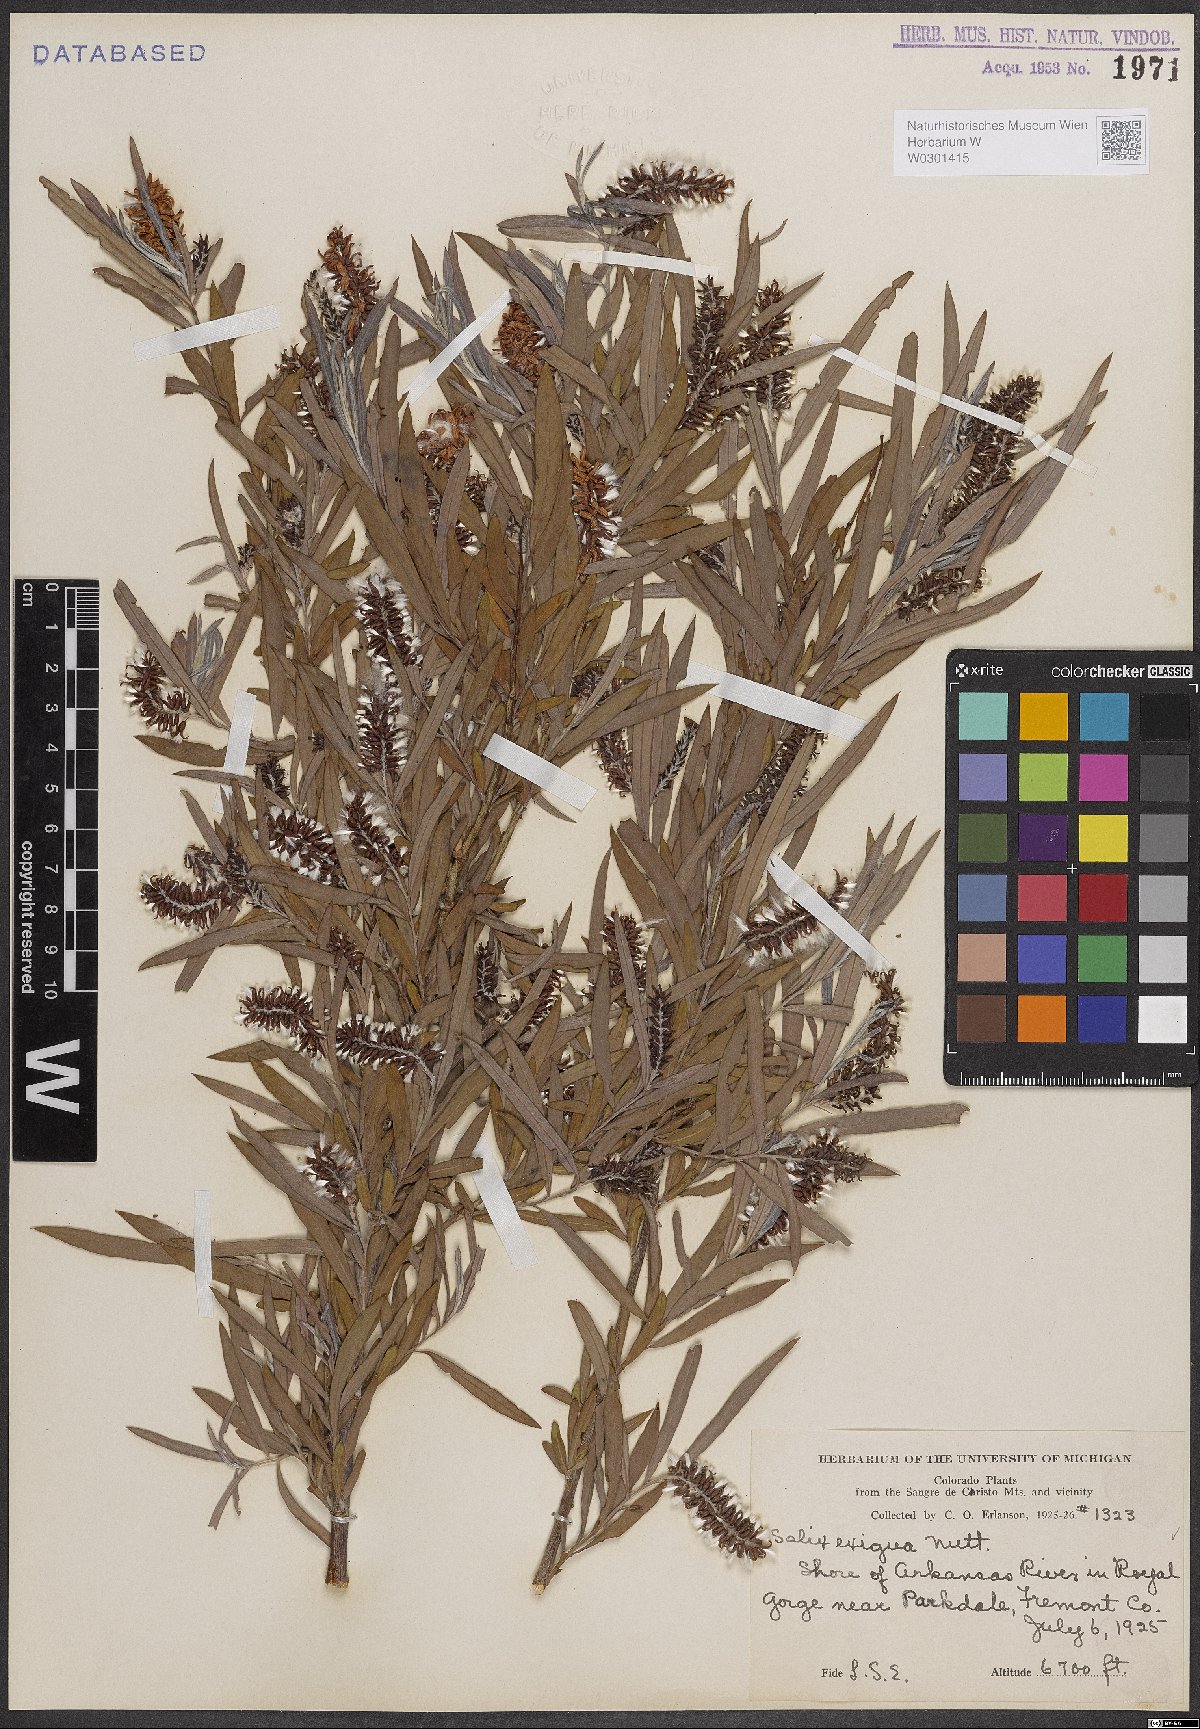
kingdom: Plantae
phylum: Tracheophyta
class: Magnoliopsida
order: Malpighiales
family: Salicaceae
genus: Salix
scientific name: Salix exigua
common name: Coyote willow
